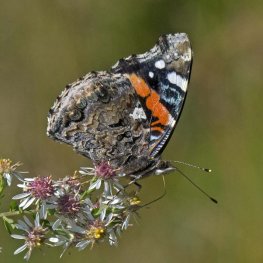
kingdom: Animalia
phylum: Arthropoda
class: Insecta
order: Lepidoptera
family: Nymphalidae
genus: Vanessa
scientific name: Vanessa atalanta
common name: Red Admiral
